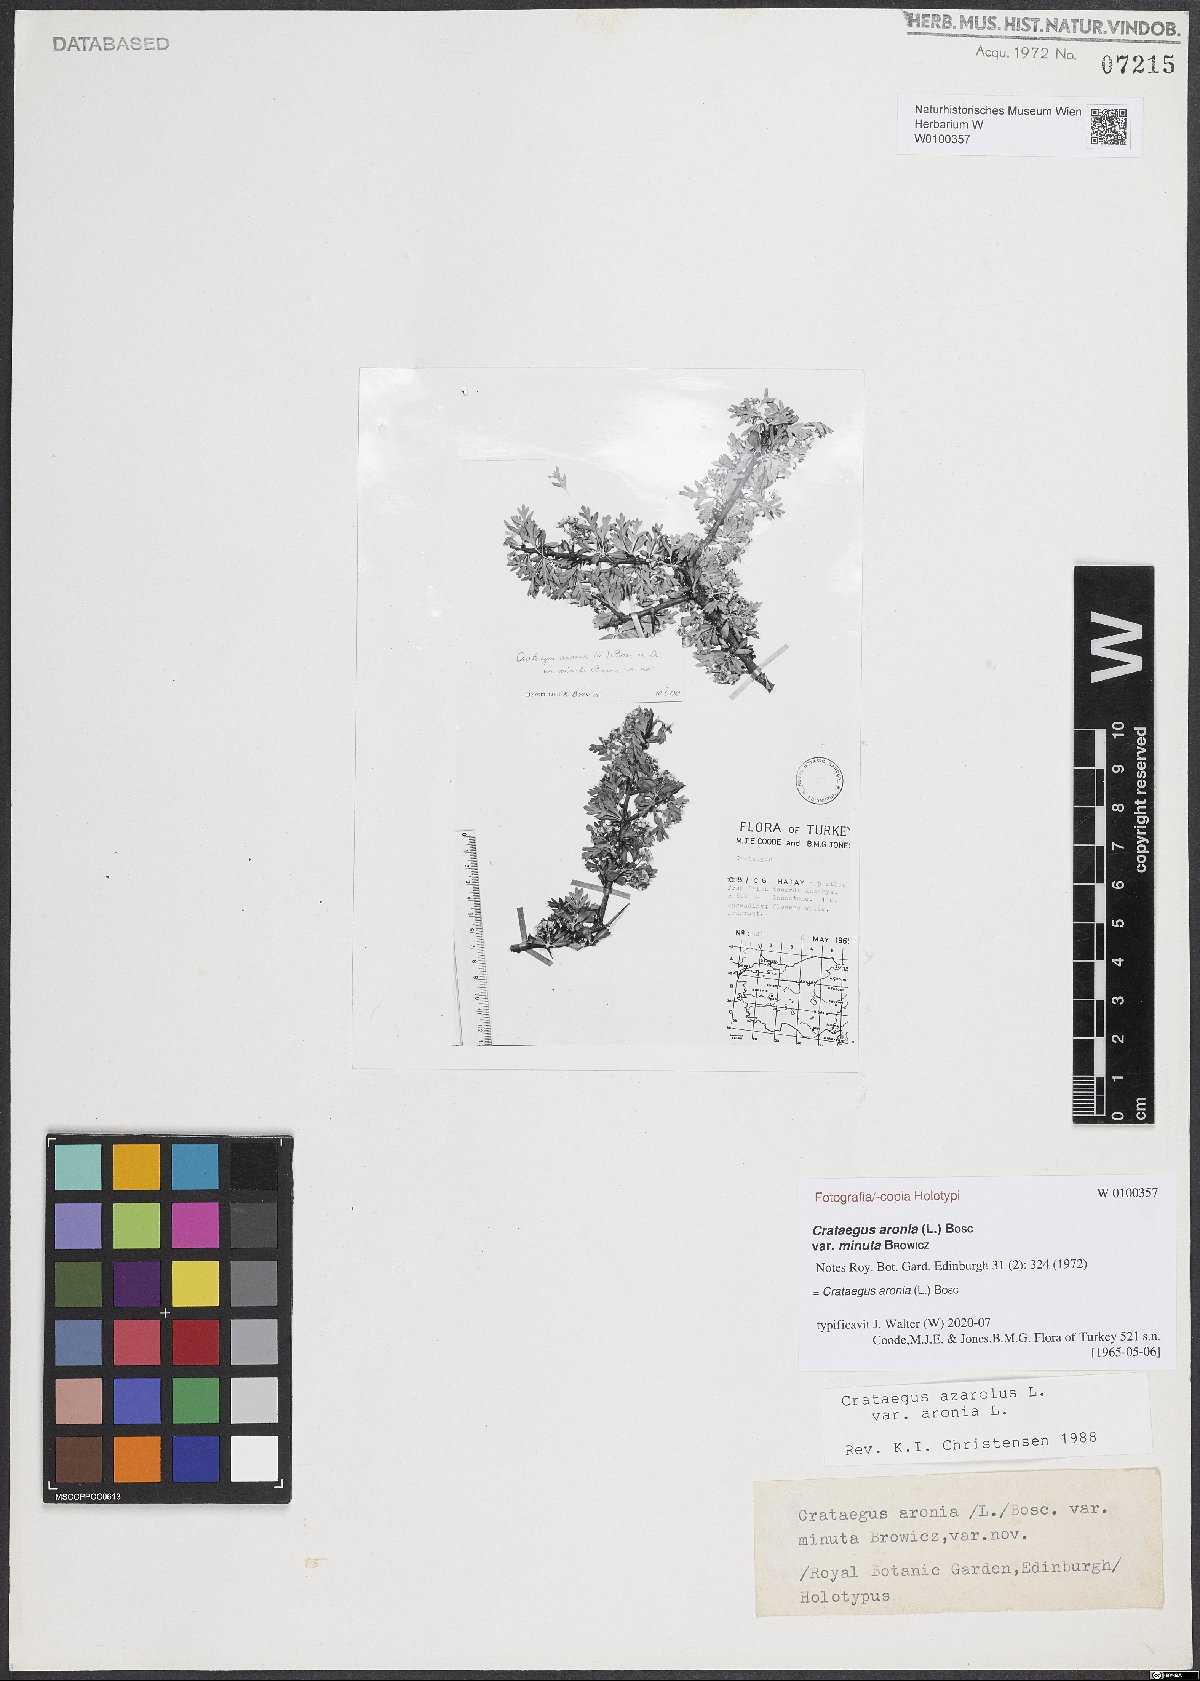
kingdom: Plantae
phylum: Tracheophyta
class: Magnoliopsida
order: Rosales
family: Rosaceae
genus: Crataegus
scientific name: Crataegus azarolus
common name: Azarole
